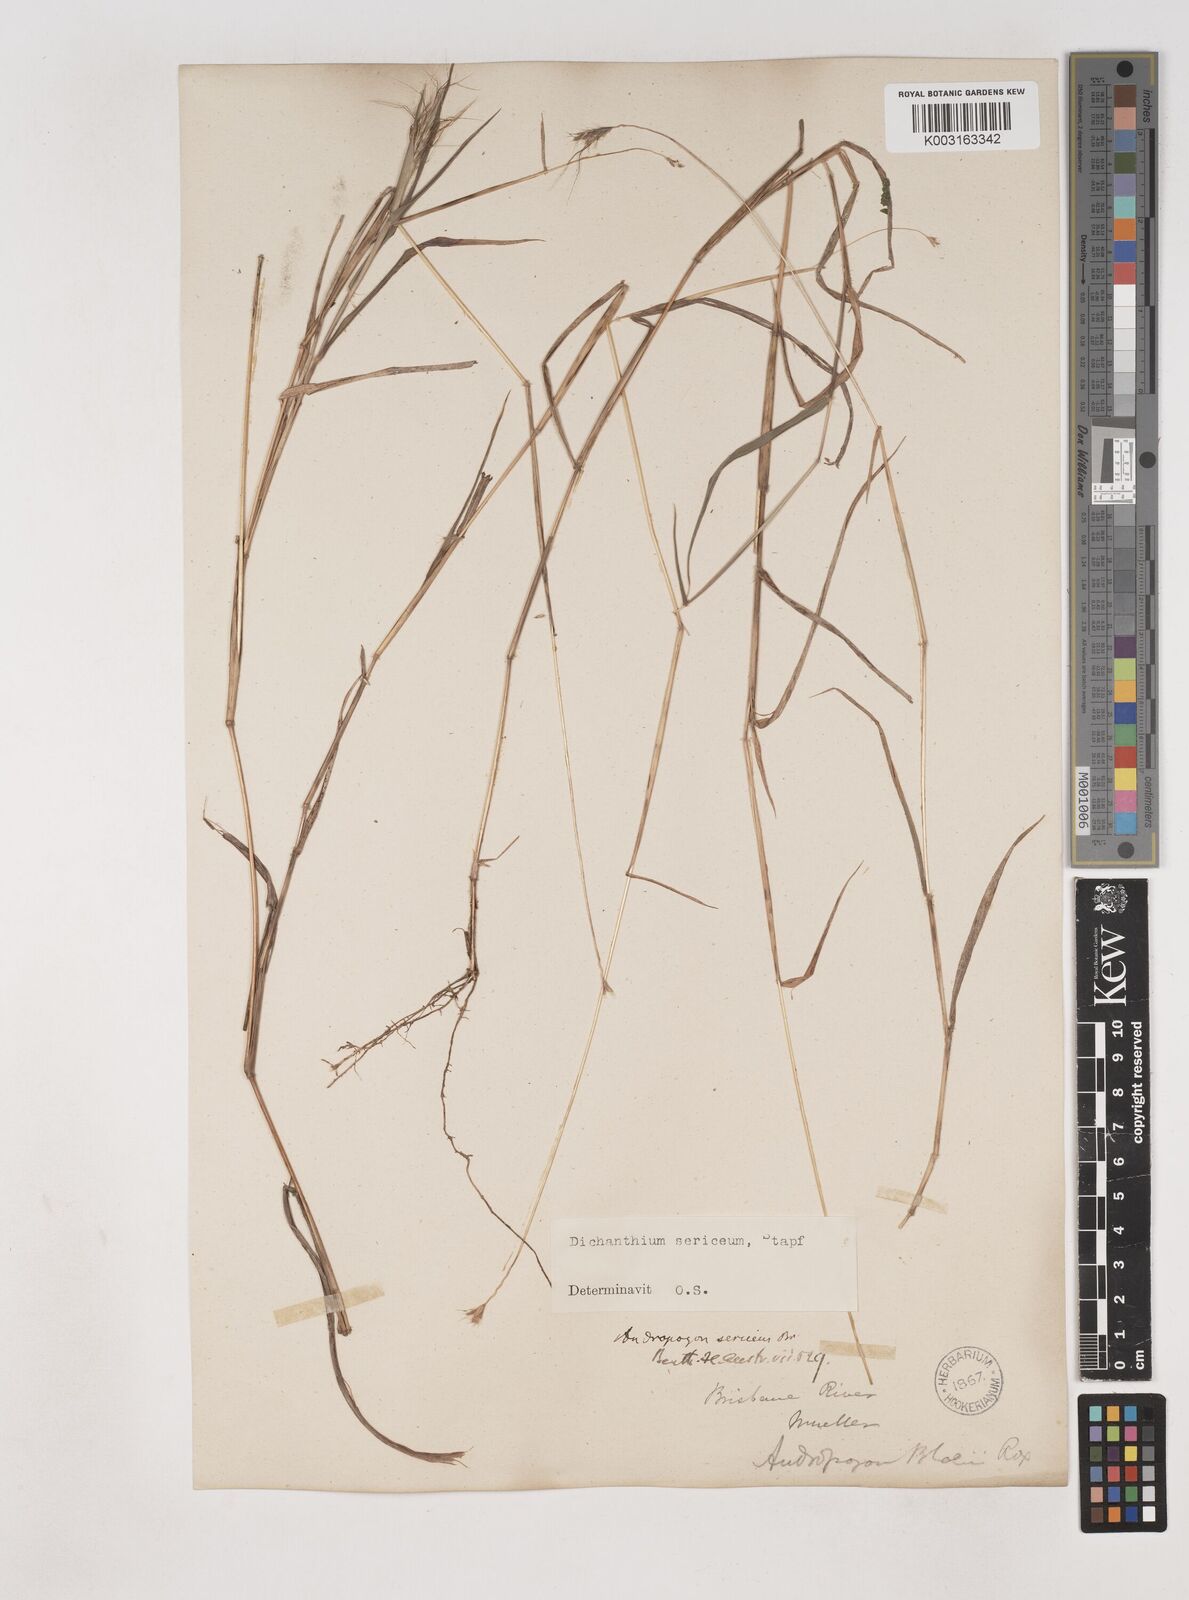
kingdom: Plantae
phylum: Tracheophyta
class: Liliopsida
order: Poales
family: Poaceae
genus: Dichanthium
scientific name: Dichanthium sericeum
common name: Silky bluestem
